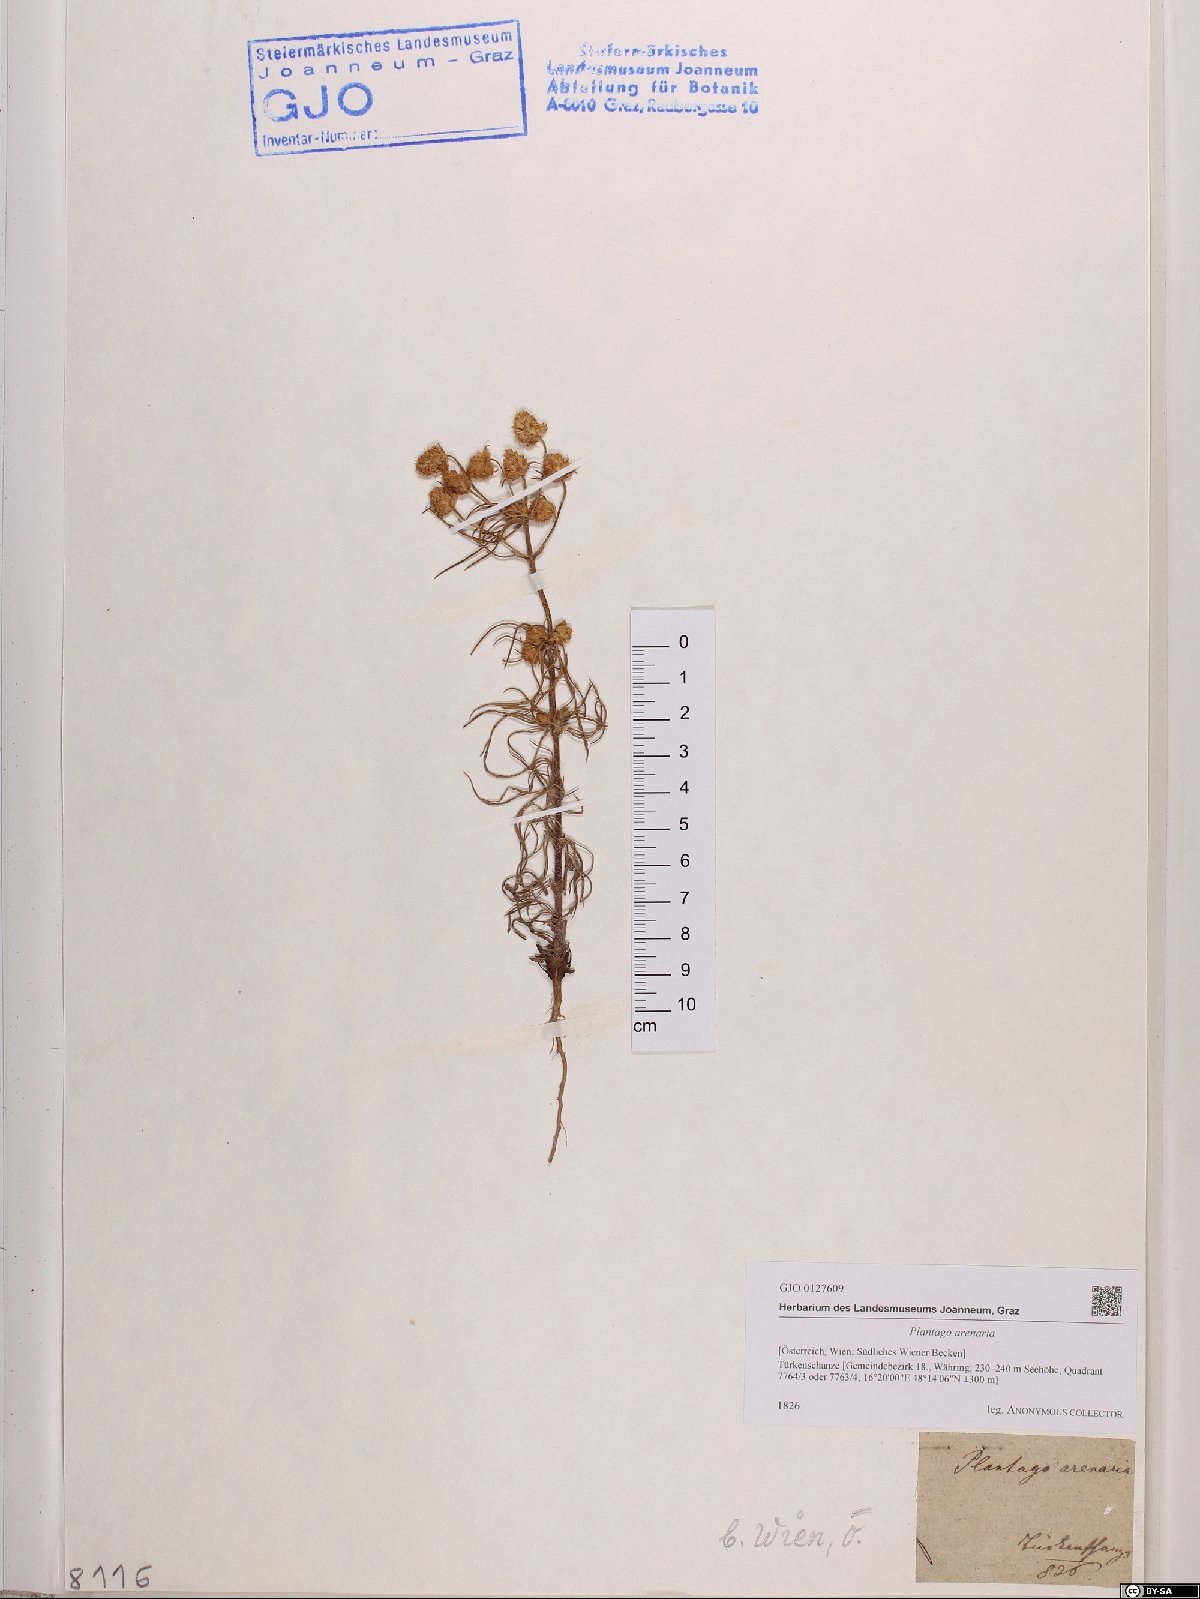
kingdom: Plantae
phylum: Tracheophyta
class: Magnoliopsida
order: Lamiales
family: Plantaginaceae
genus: Plantago
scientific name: Plantago arenaria
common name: Branched plantain
